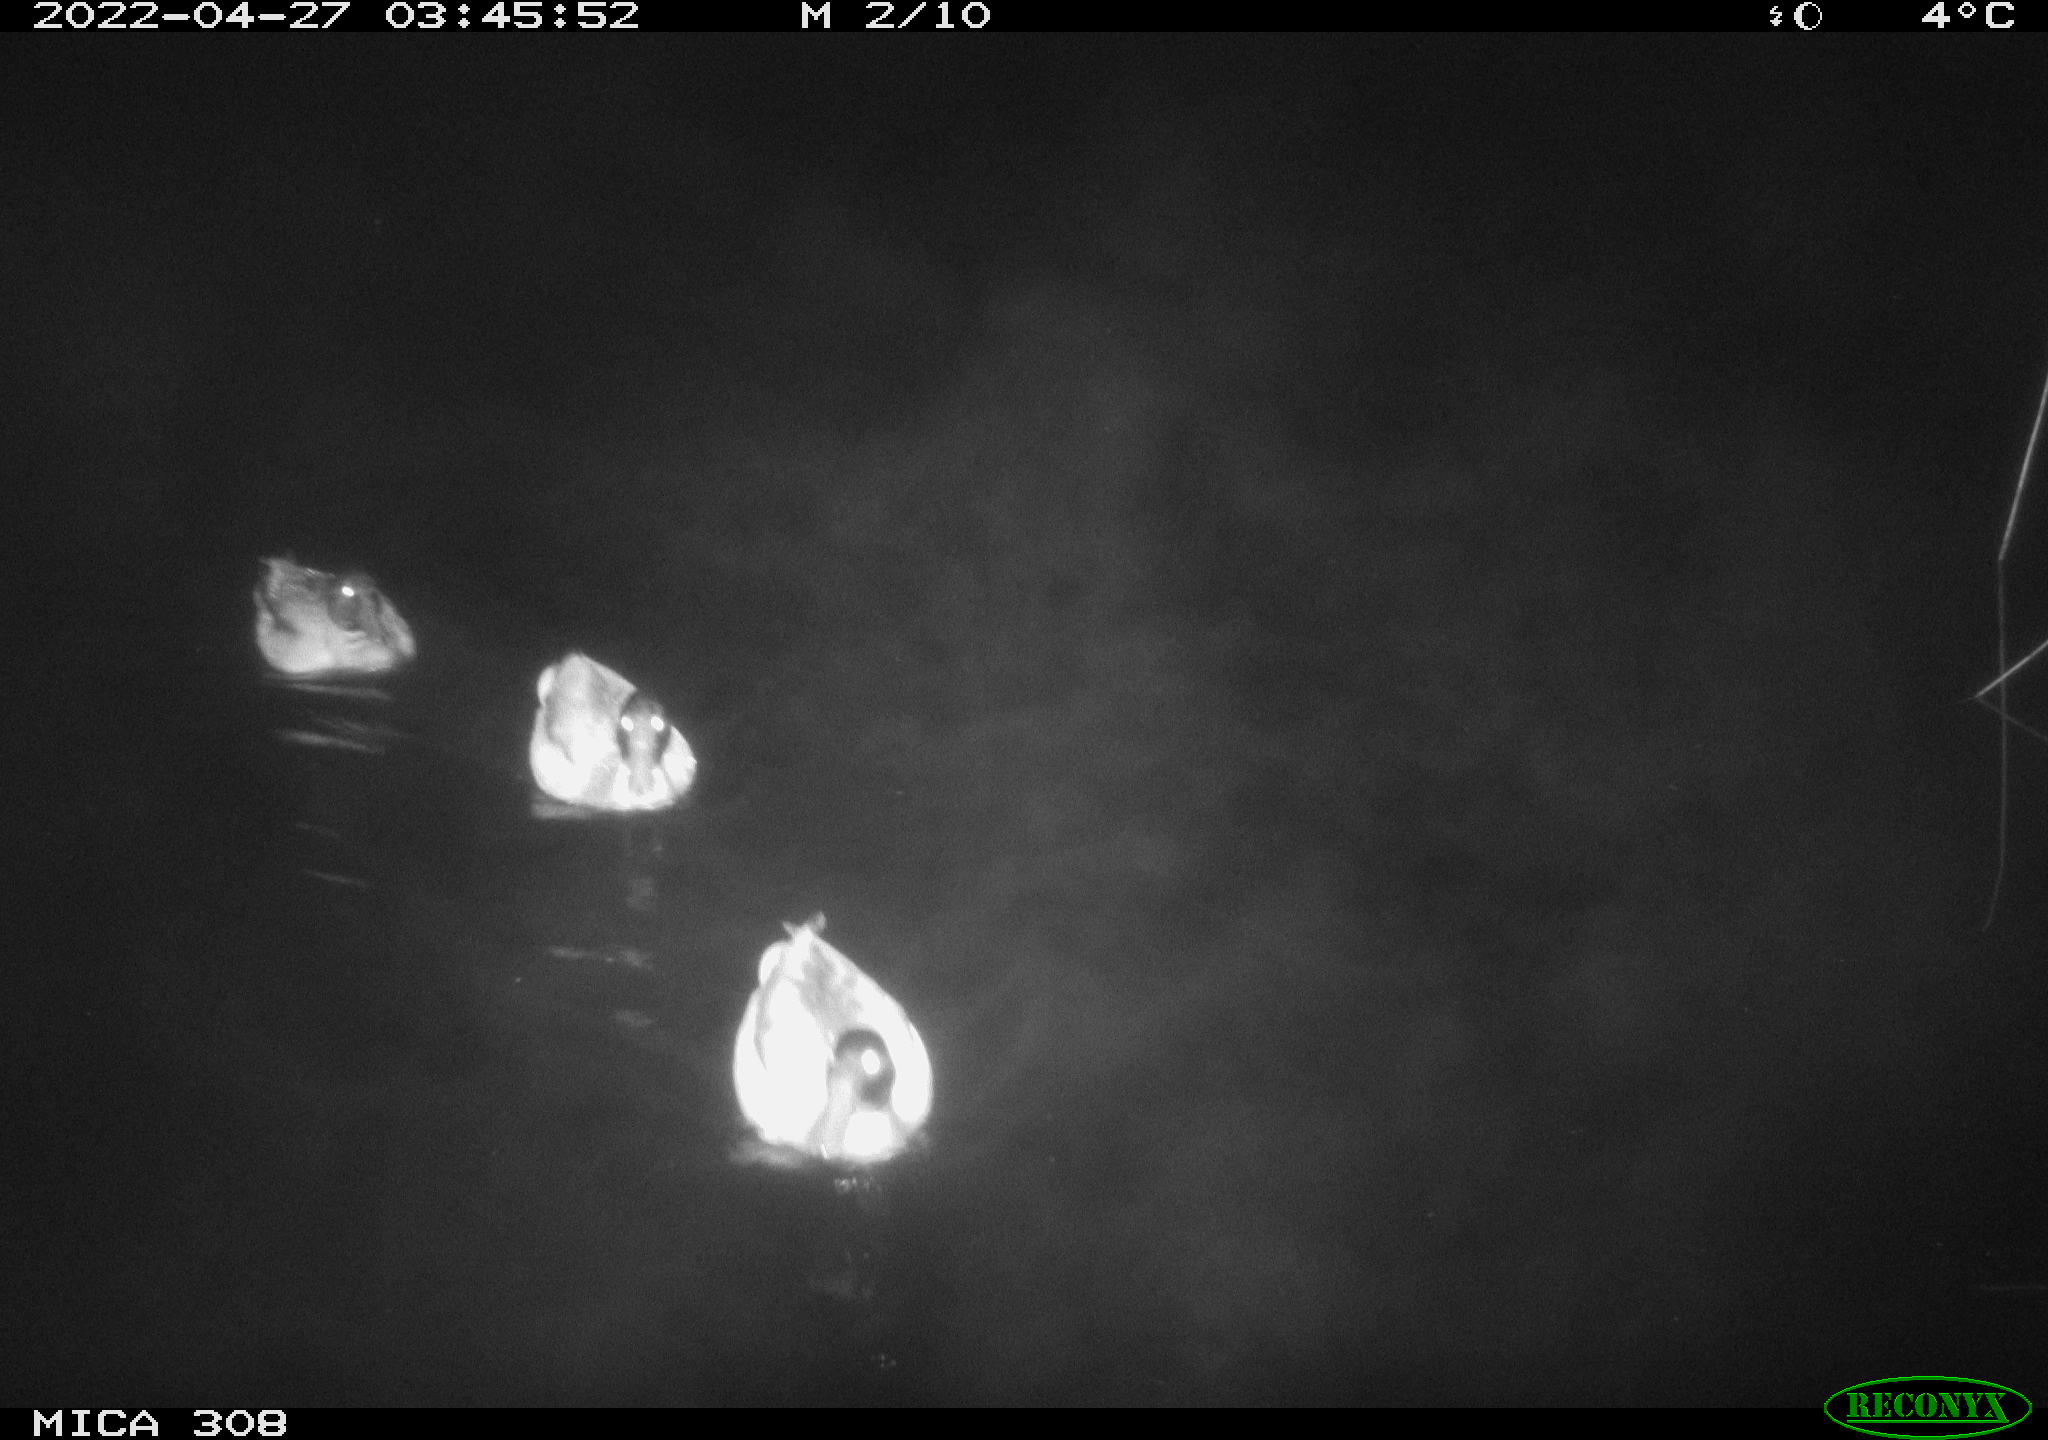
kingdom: Animalia
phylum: Chordata
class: Aves
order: Anseriformes
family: Anatidae
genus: Anas
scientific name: Anas platyrhynchos
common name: Mallard
